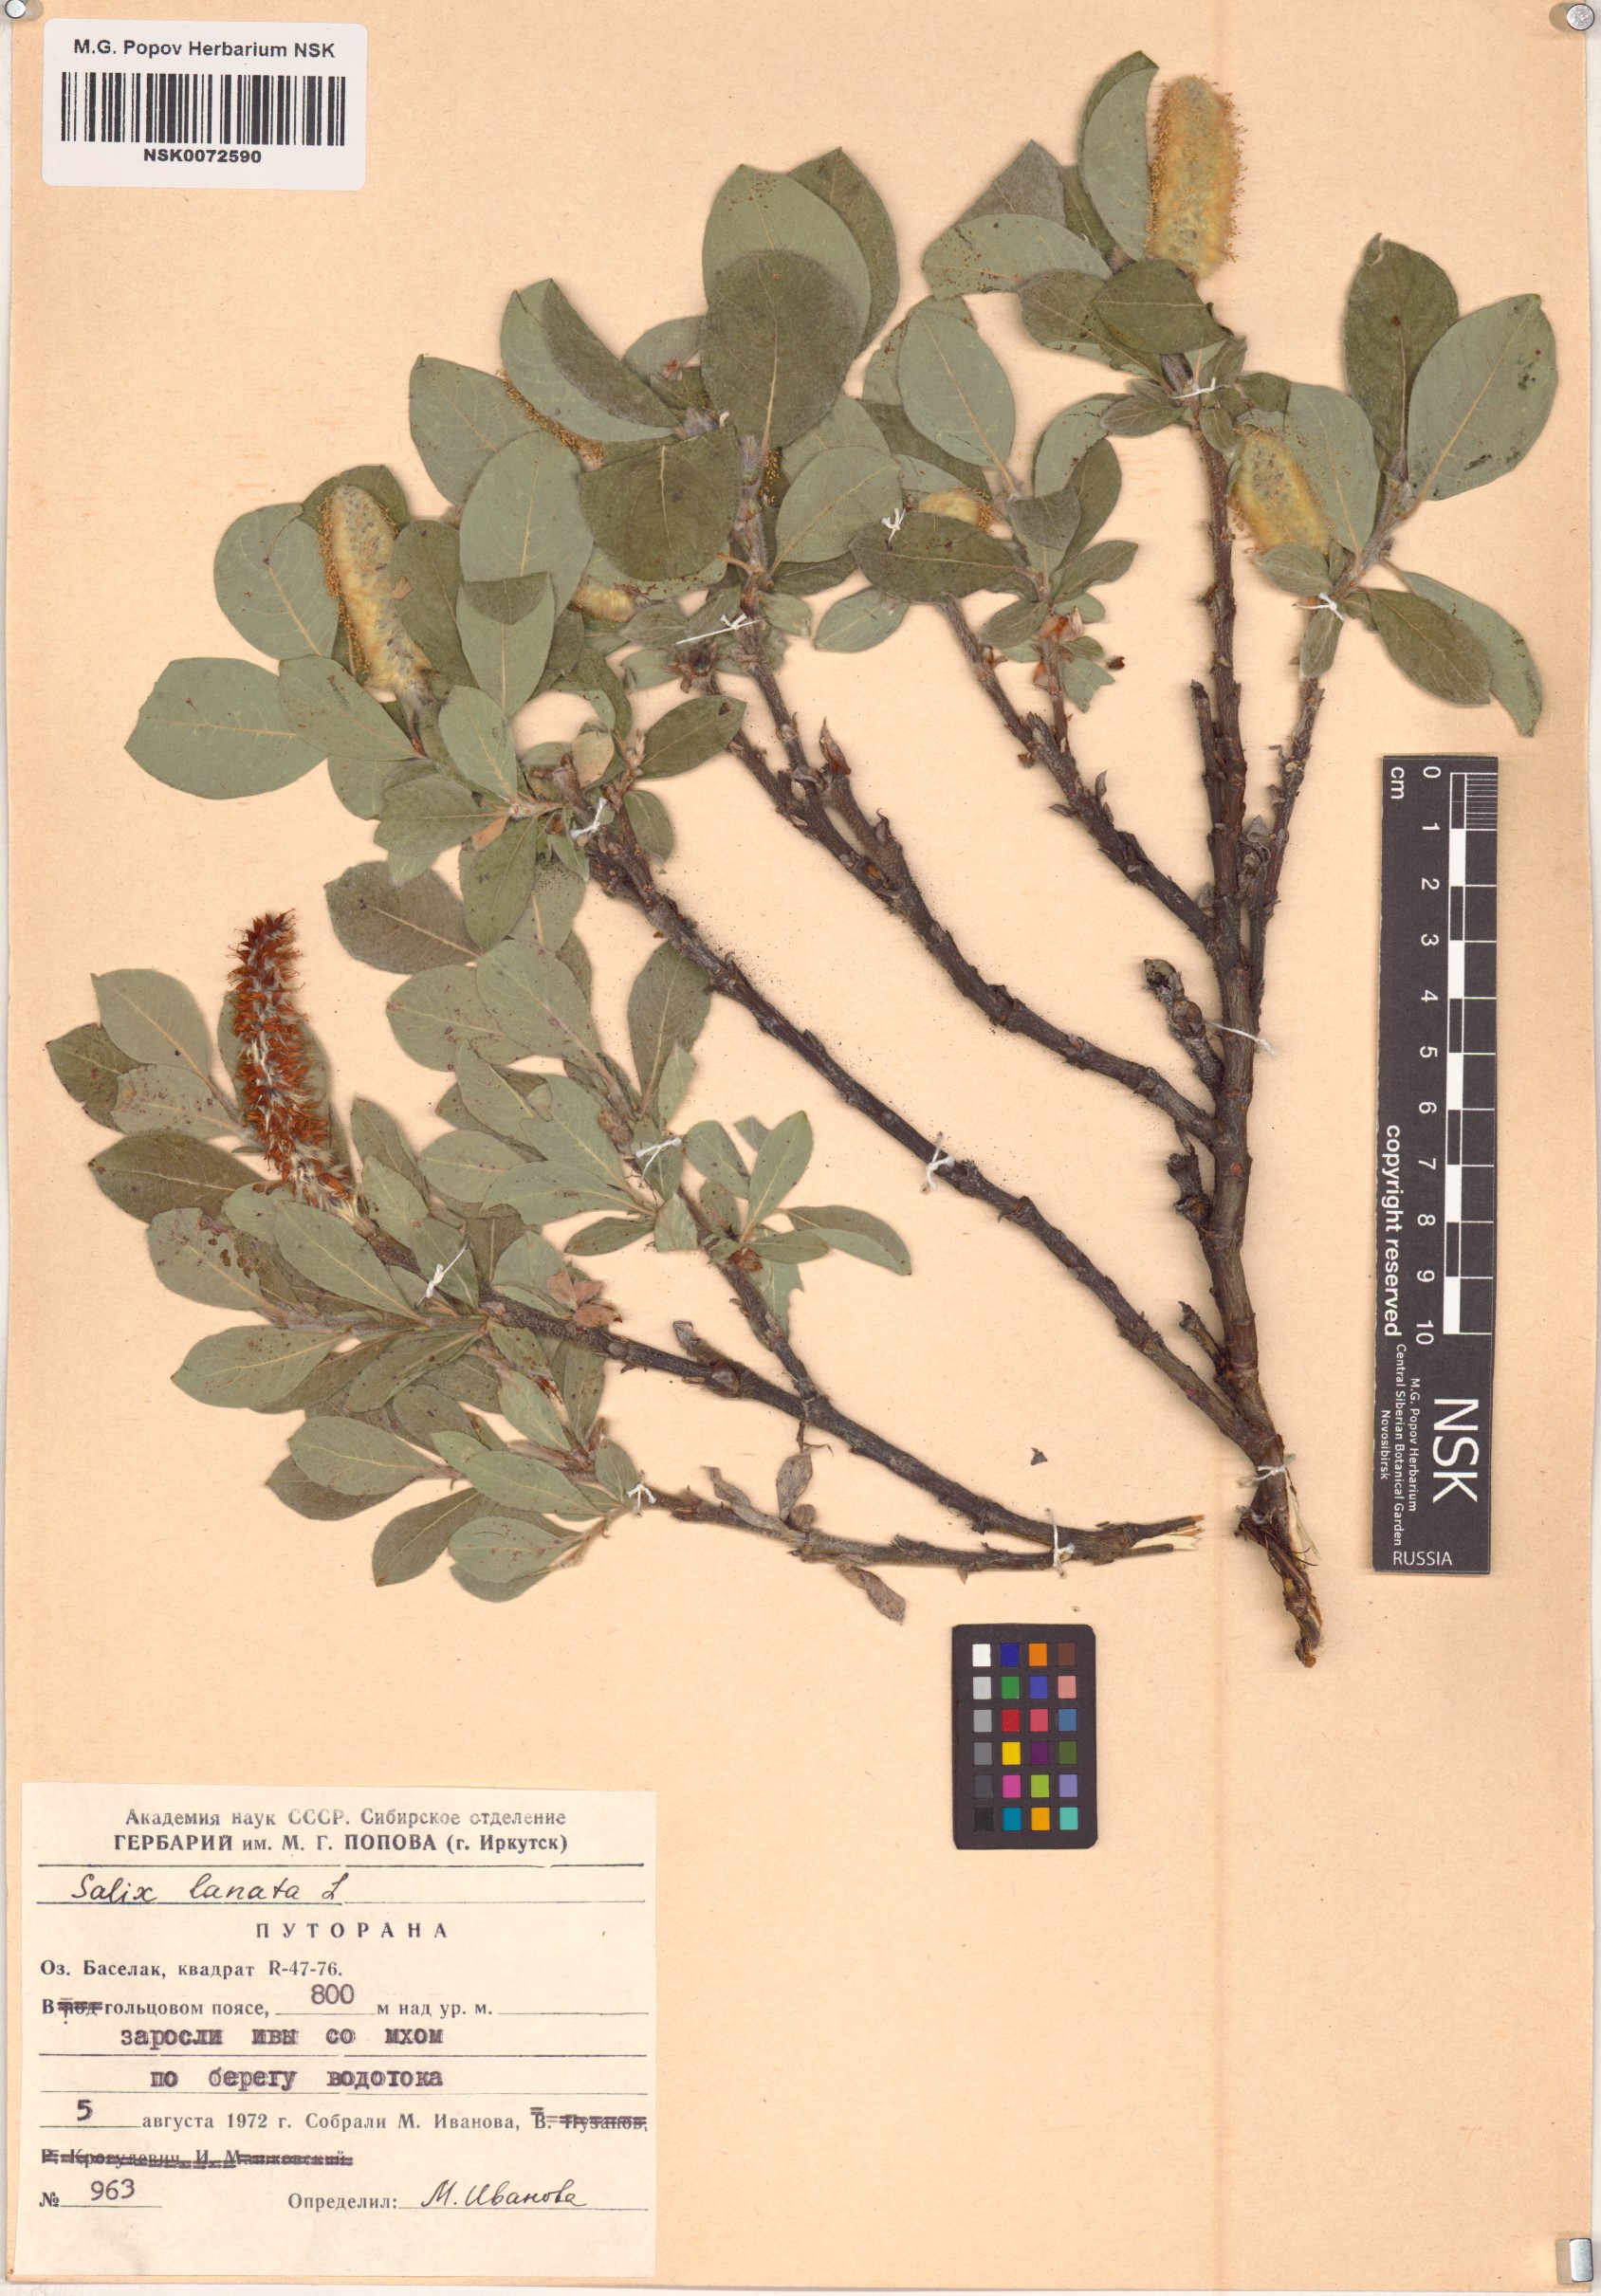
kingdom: Plantae
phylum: Tracheophyta
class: Magnoliopsida
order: Malpighiales
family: Salicaceae
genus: Salix
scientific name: Salix lanata
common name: Woolly willow
